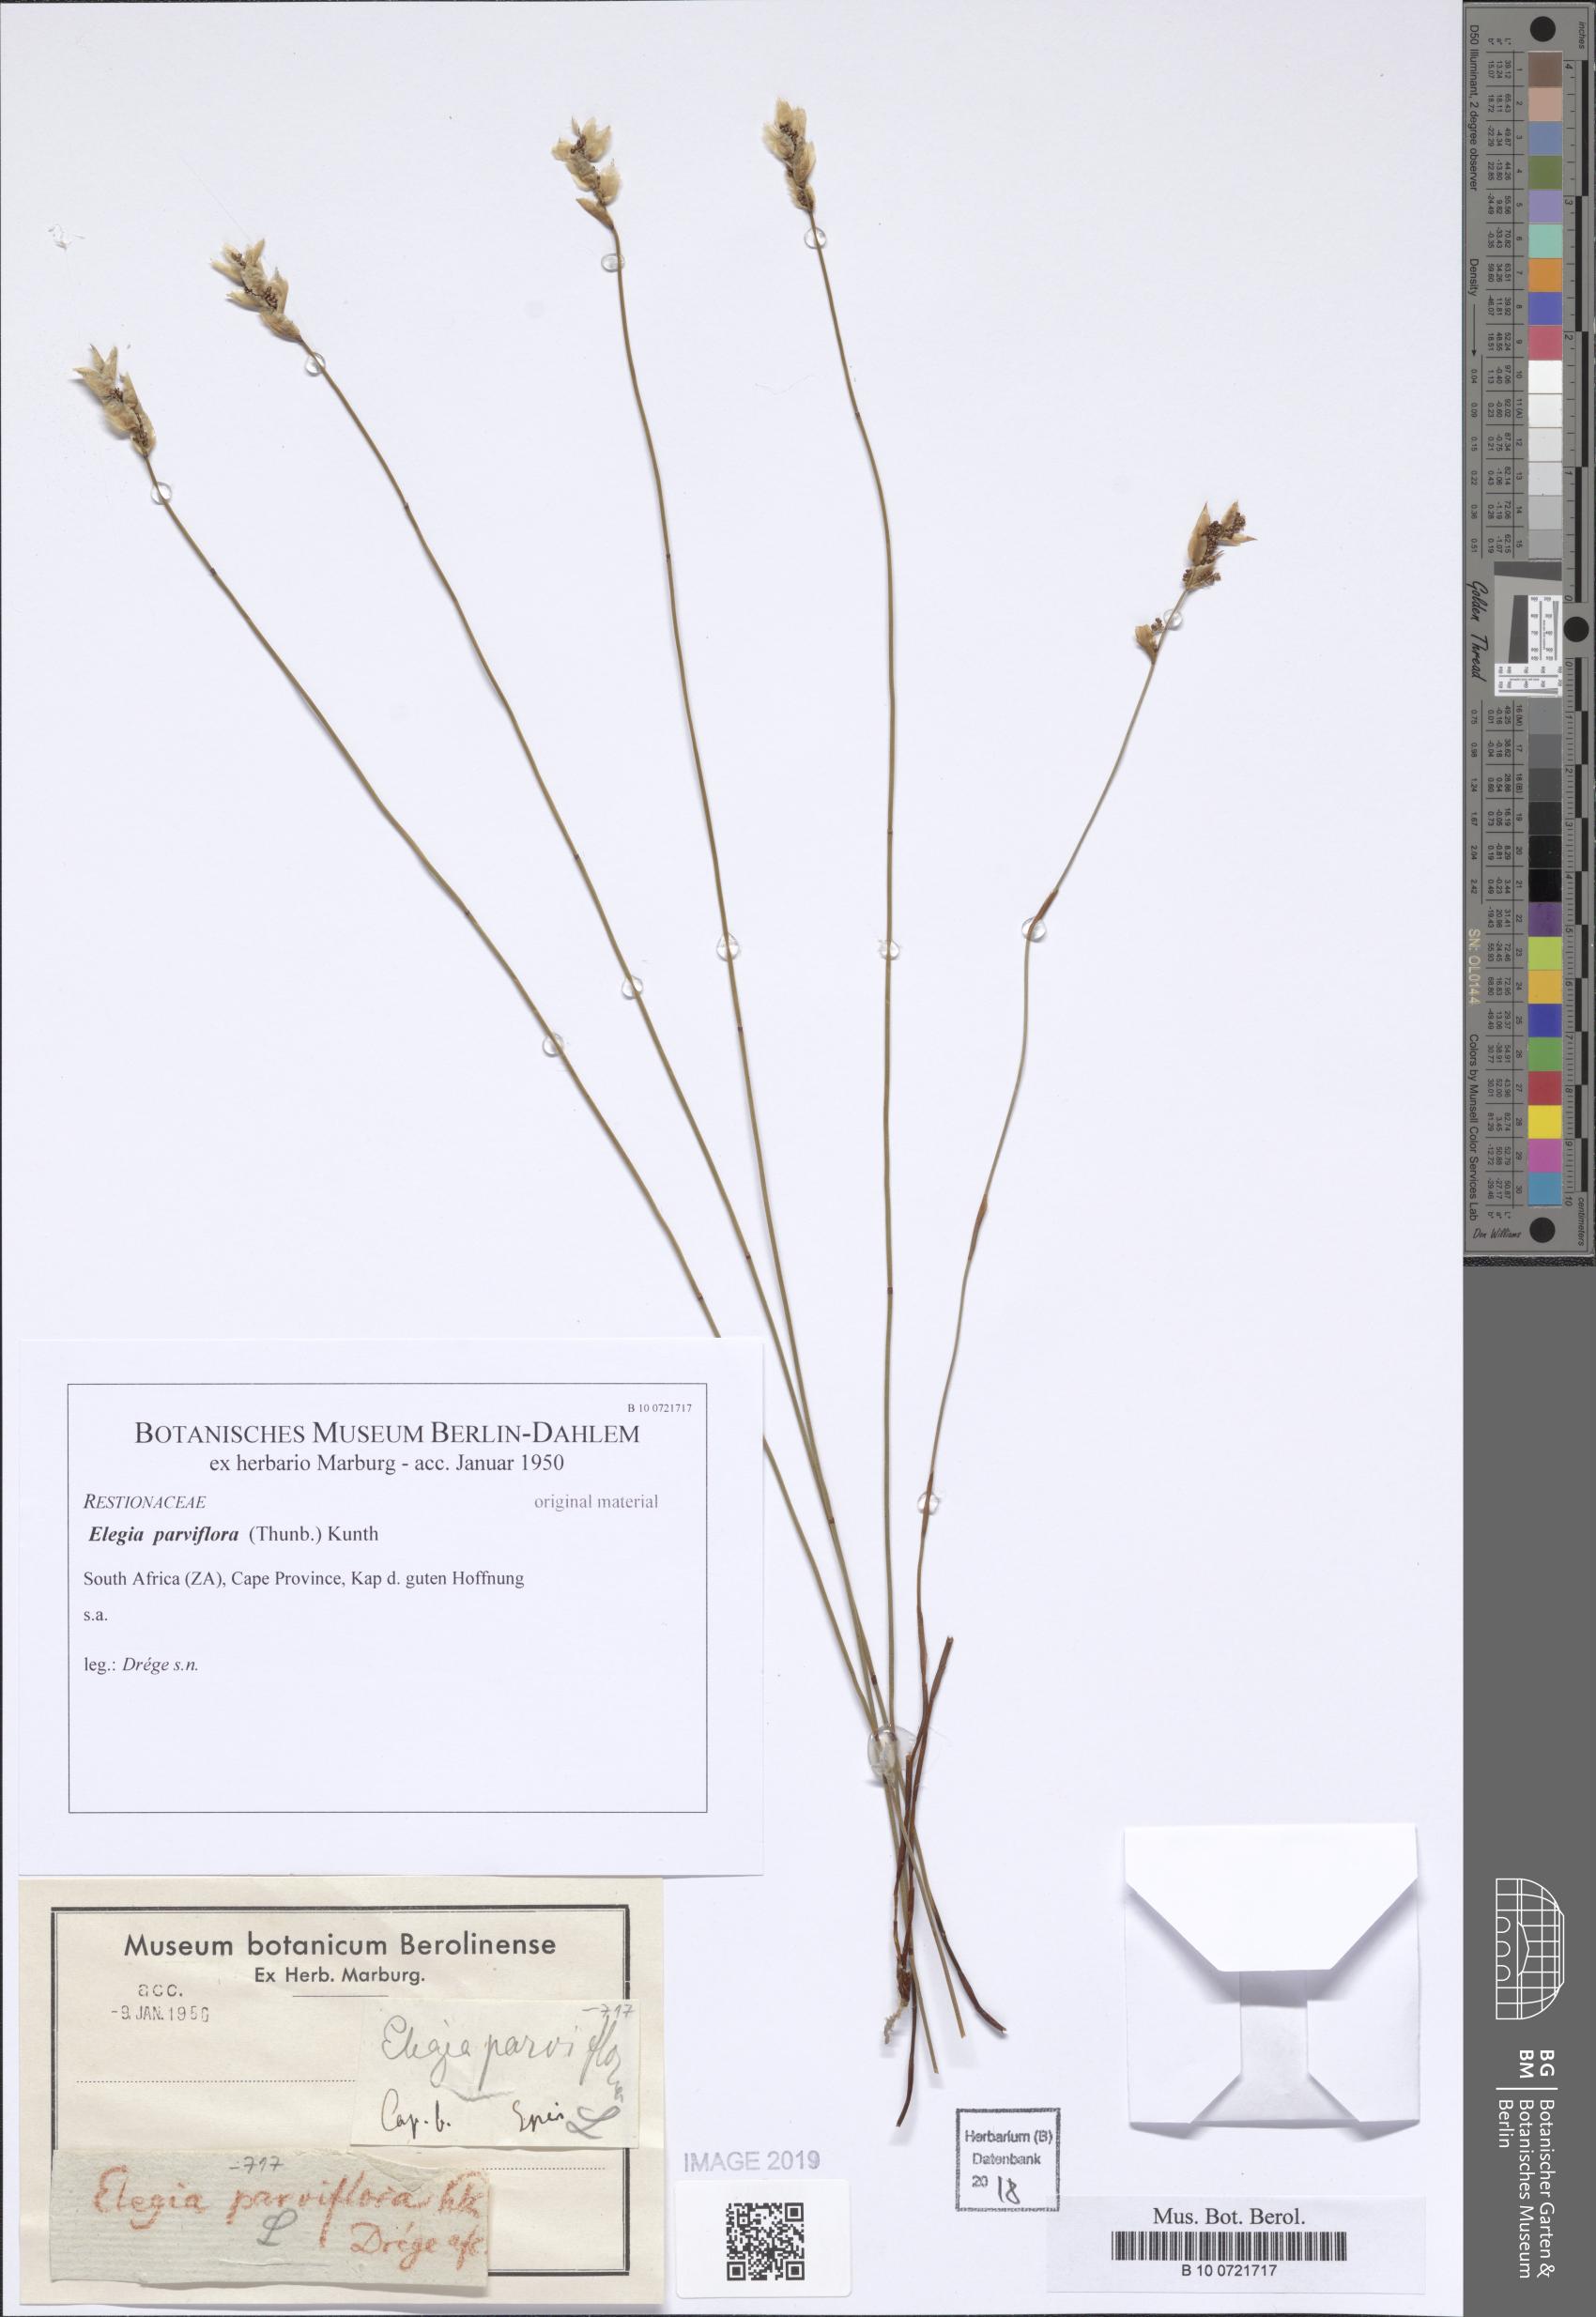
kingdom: Plantae
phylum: Tracheophyta
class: Liliopsida
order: Poales
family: Restionaceae
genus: Cannomois
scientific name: Cannomois parviflora
